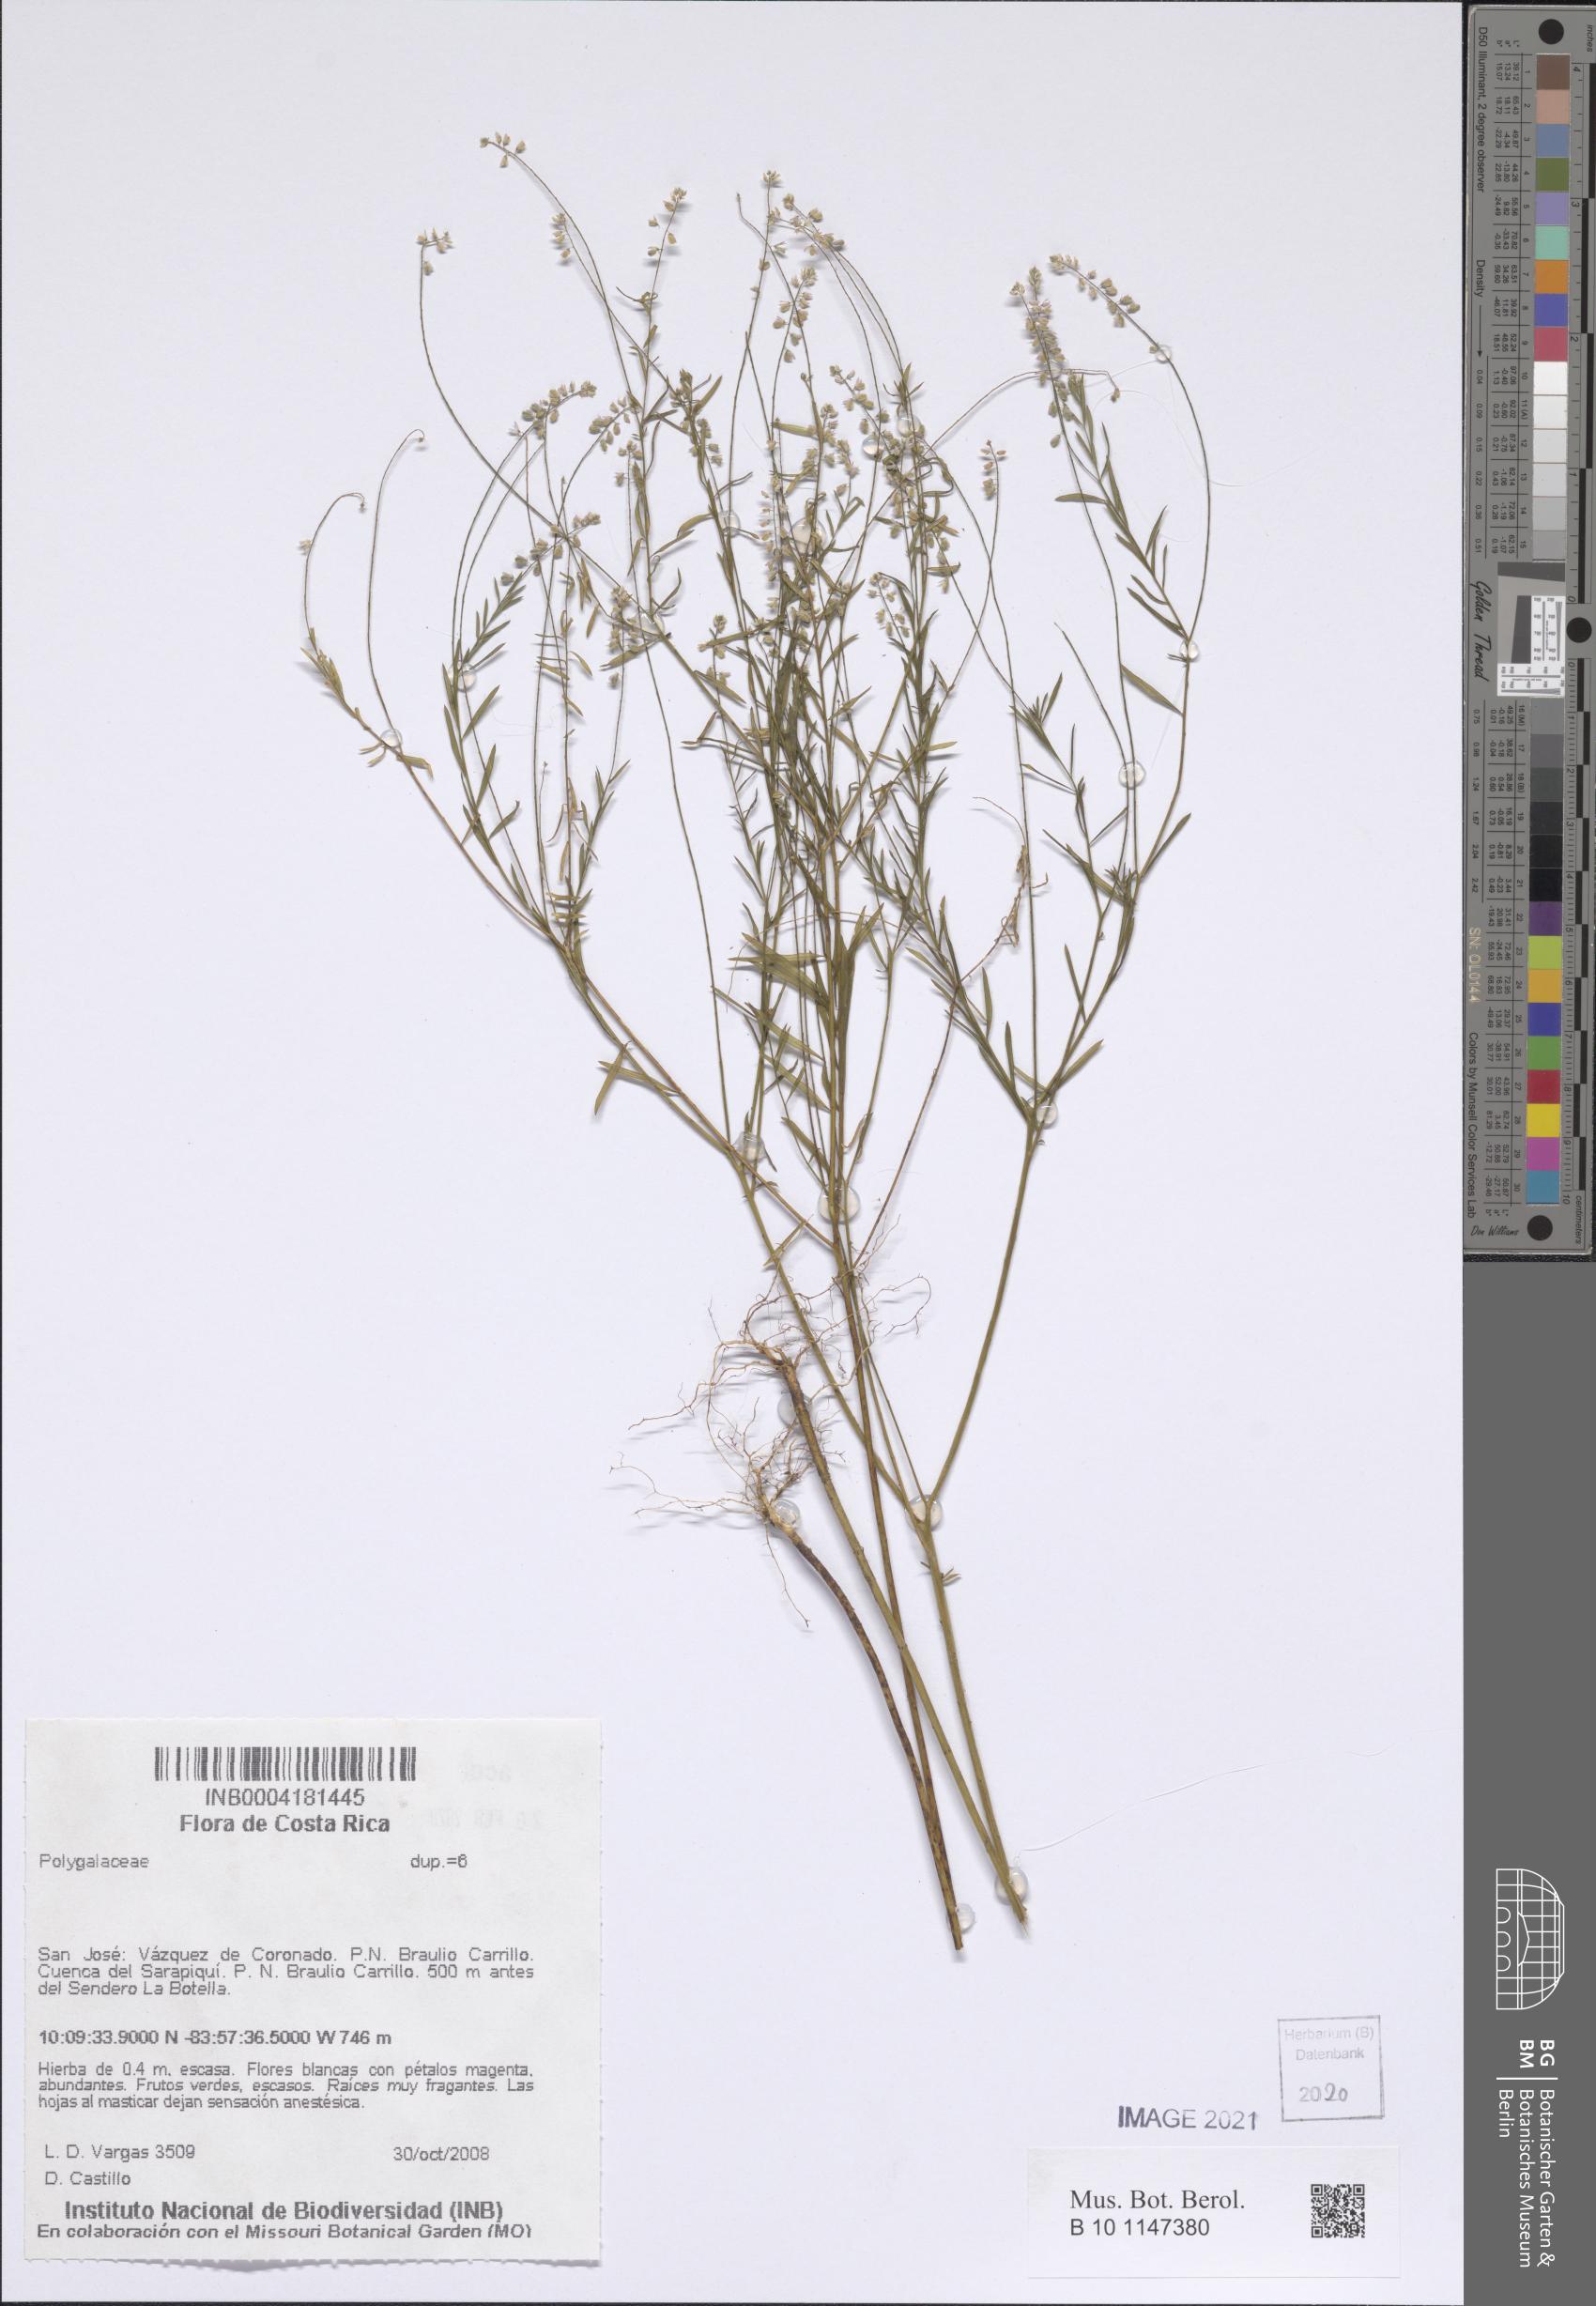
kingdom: Plantae
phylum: Tracheophyta
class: Magnoliopsida
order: Fabales
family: Polygalaceae
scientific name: Polygalaceae
